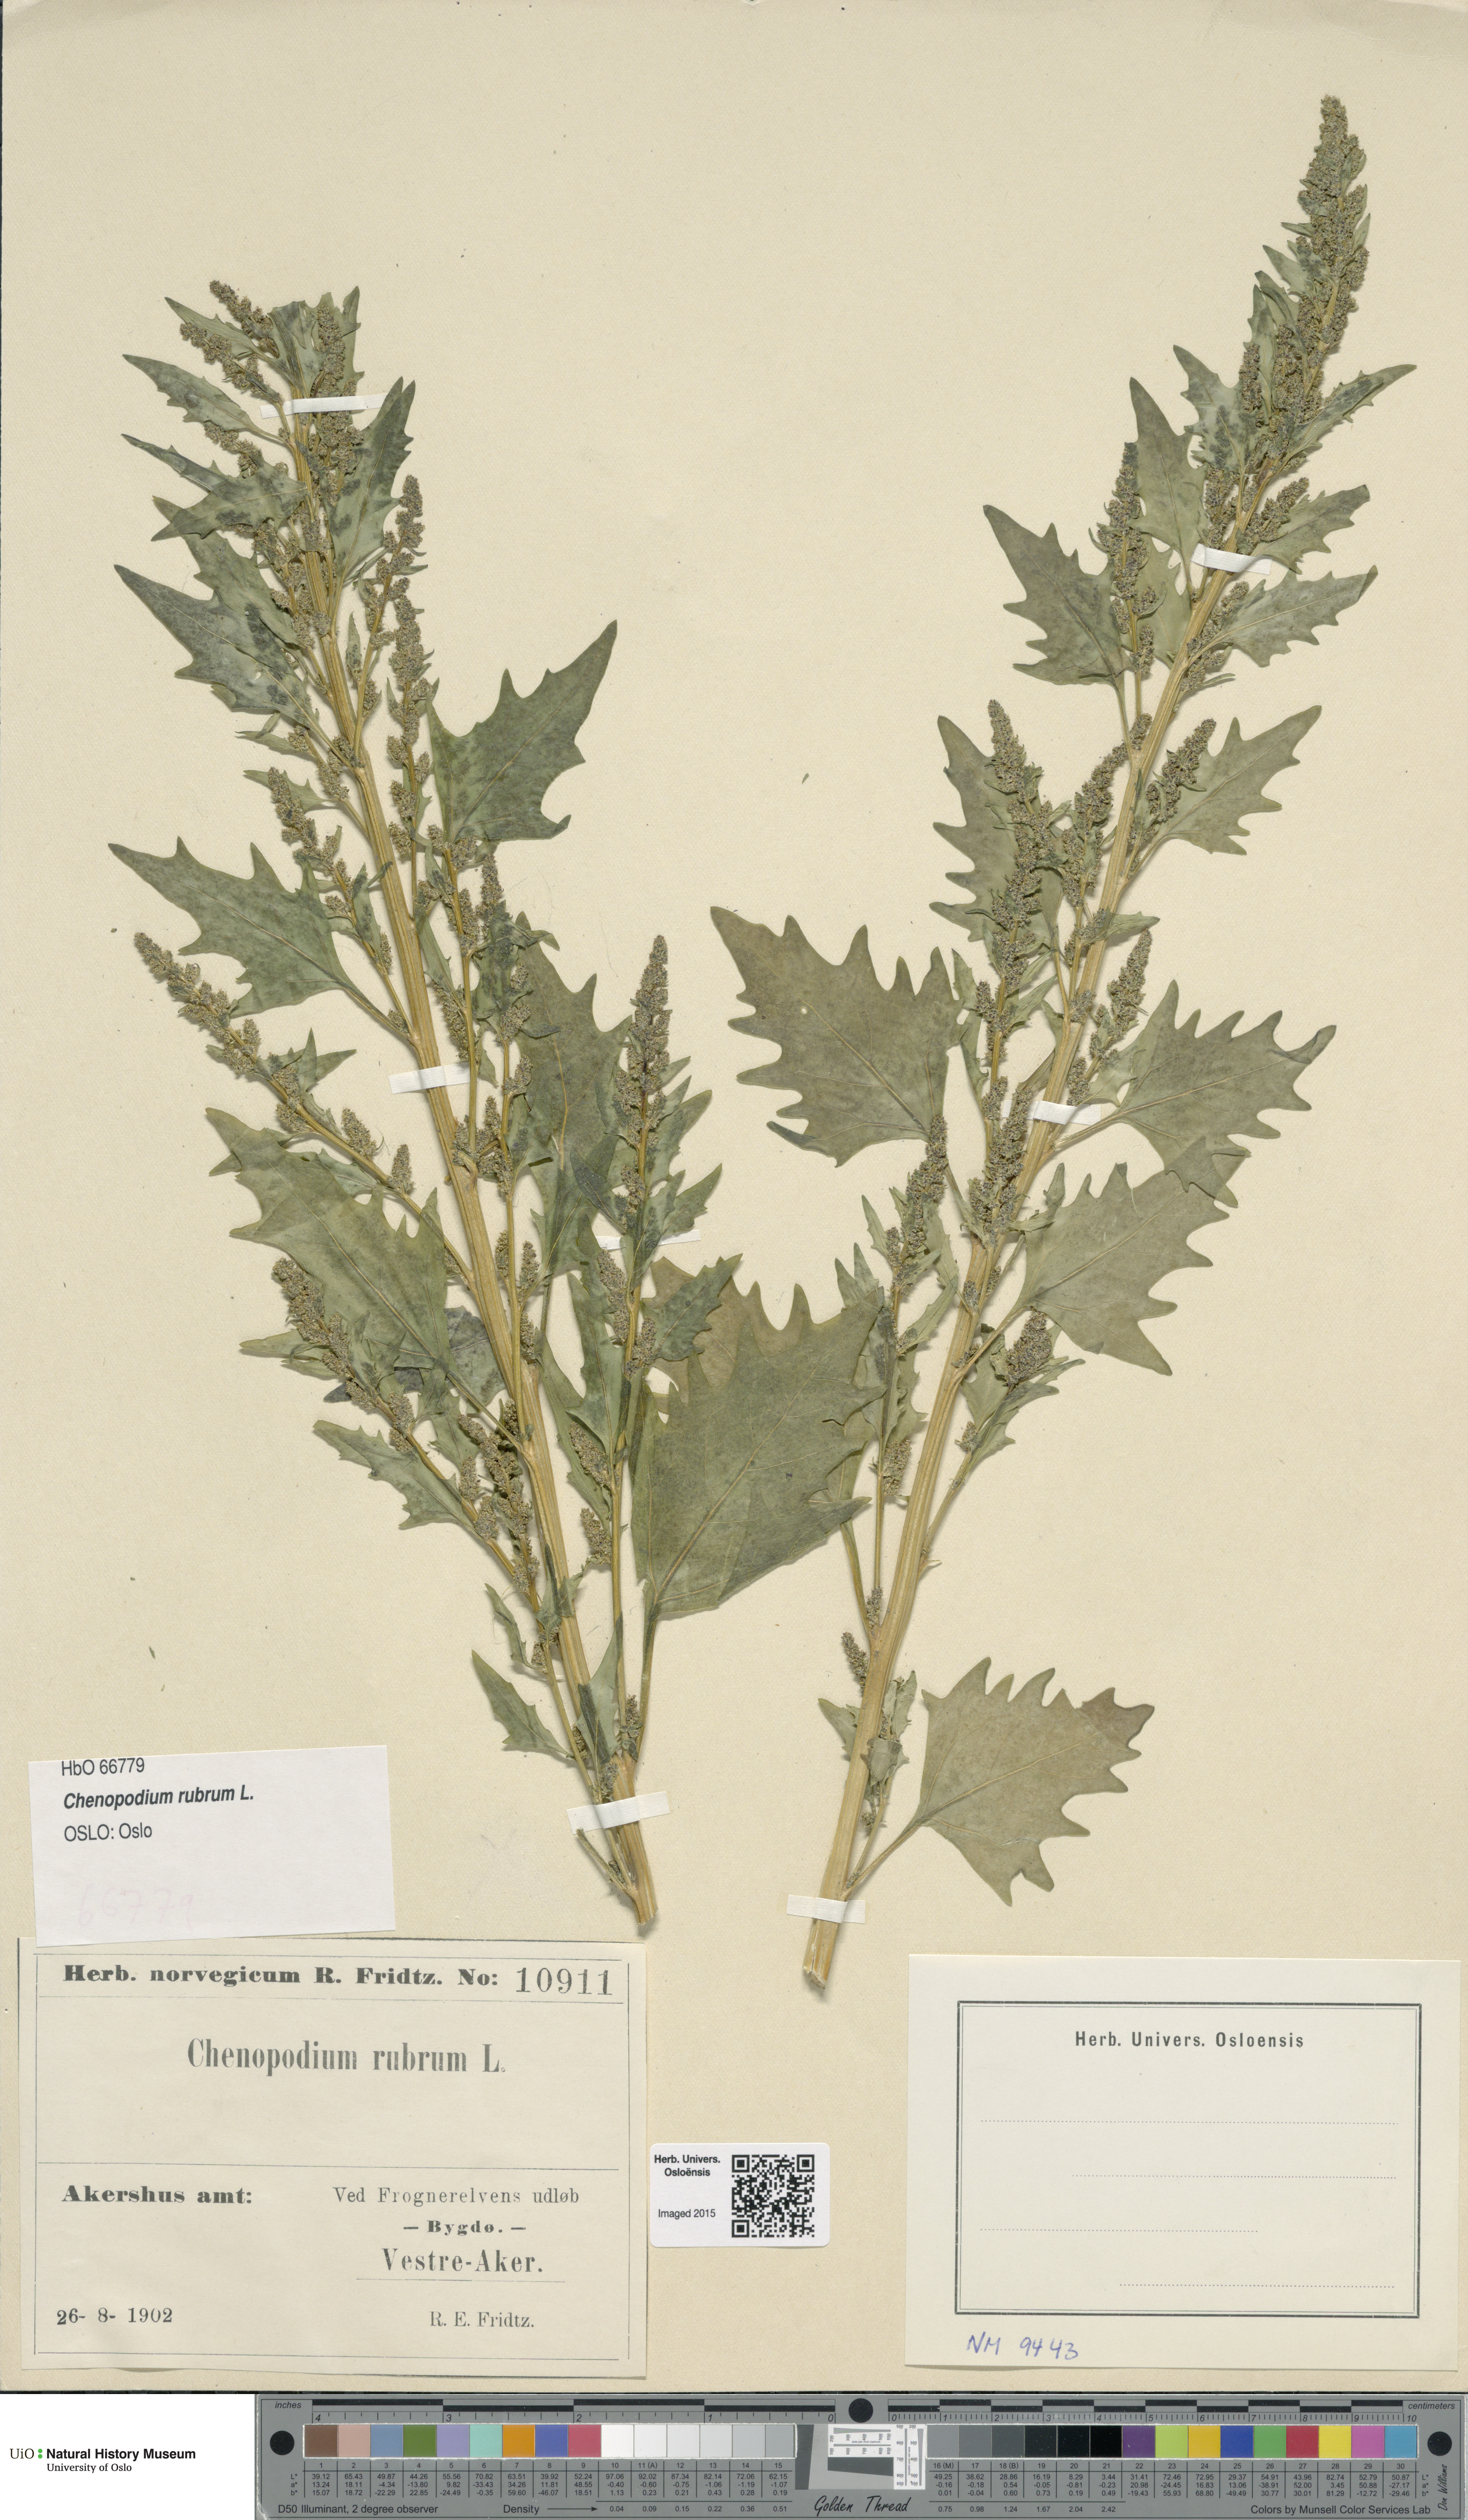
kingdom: Plantae
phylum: Tracheophyta
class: Magnoliopsida
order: Caryophyllales
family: Amaranthaceae
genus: Oxybasis
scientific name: Oxybasis rubra
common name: Red goosefoot
